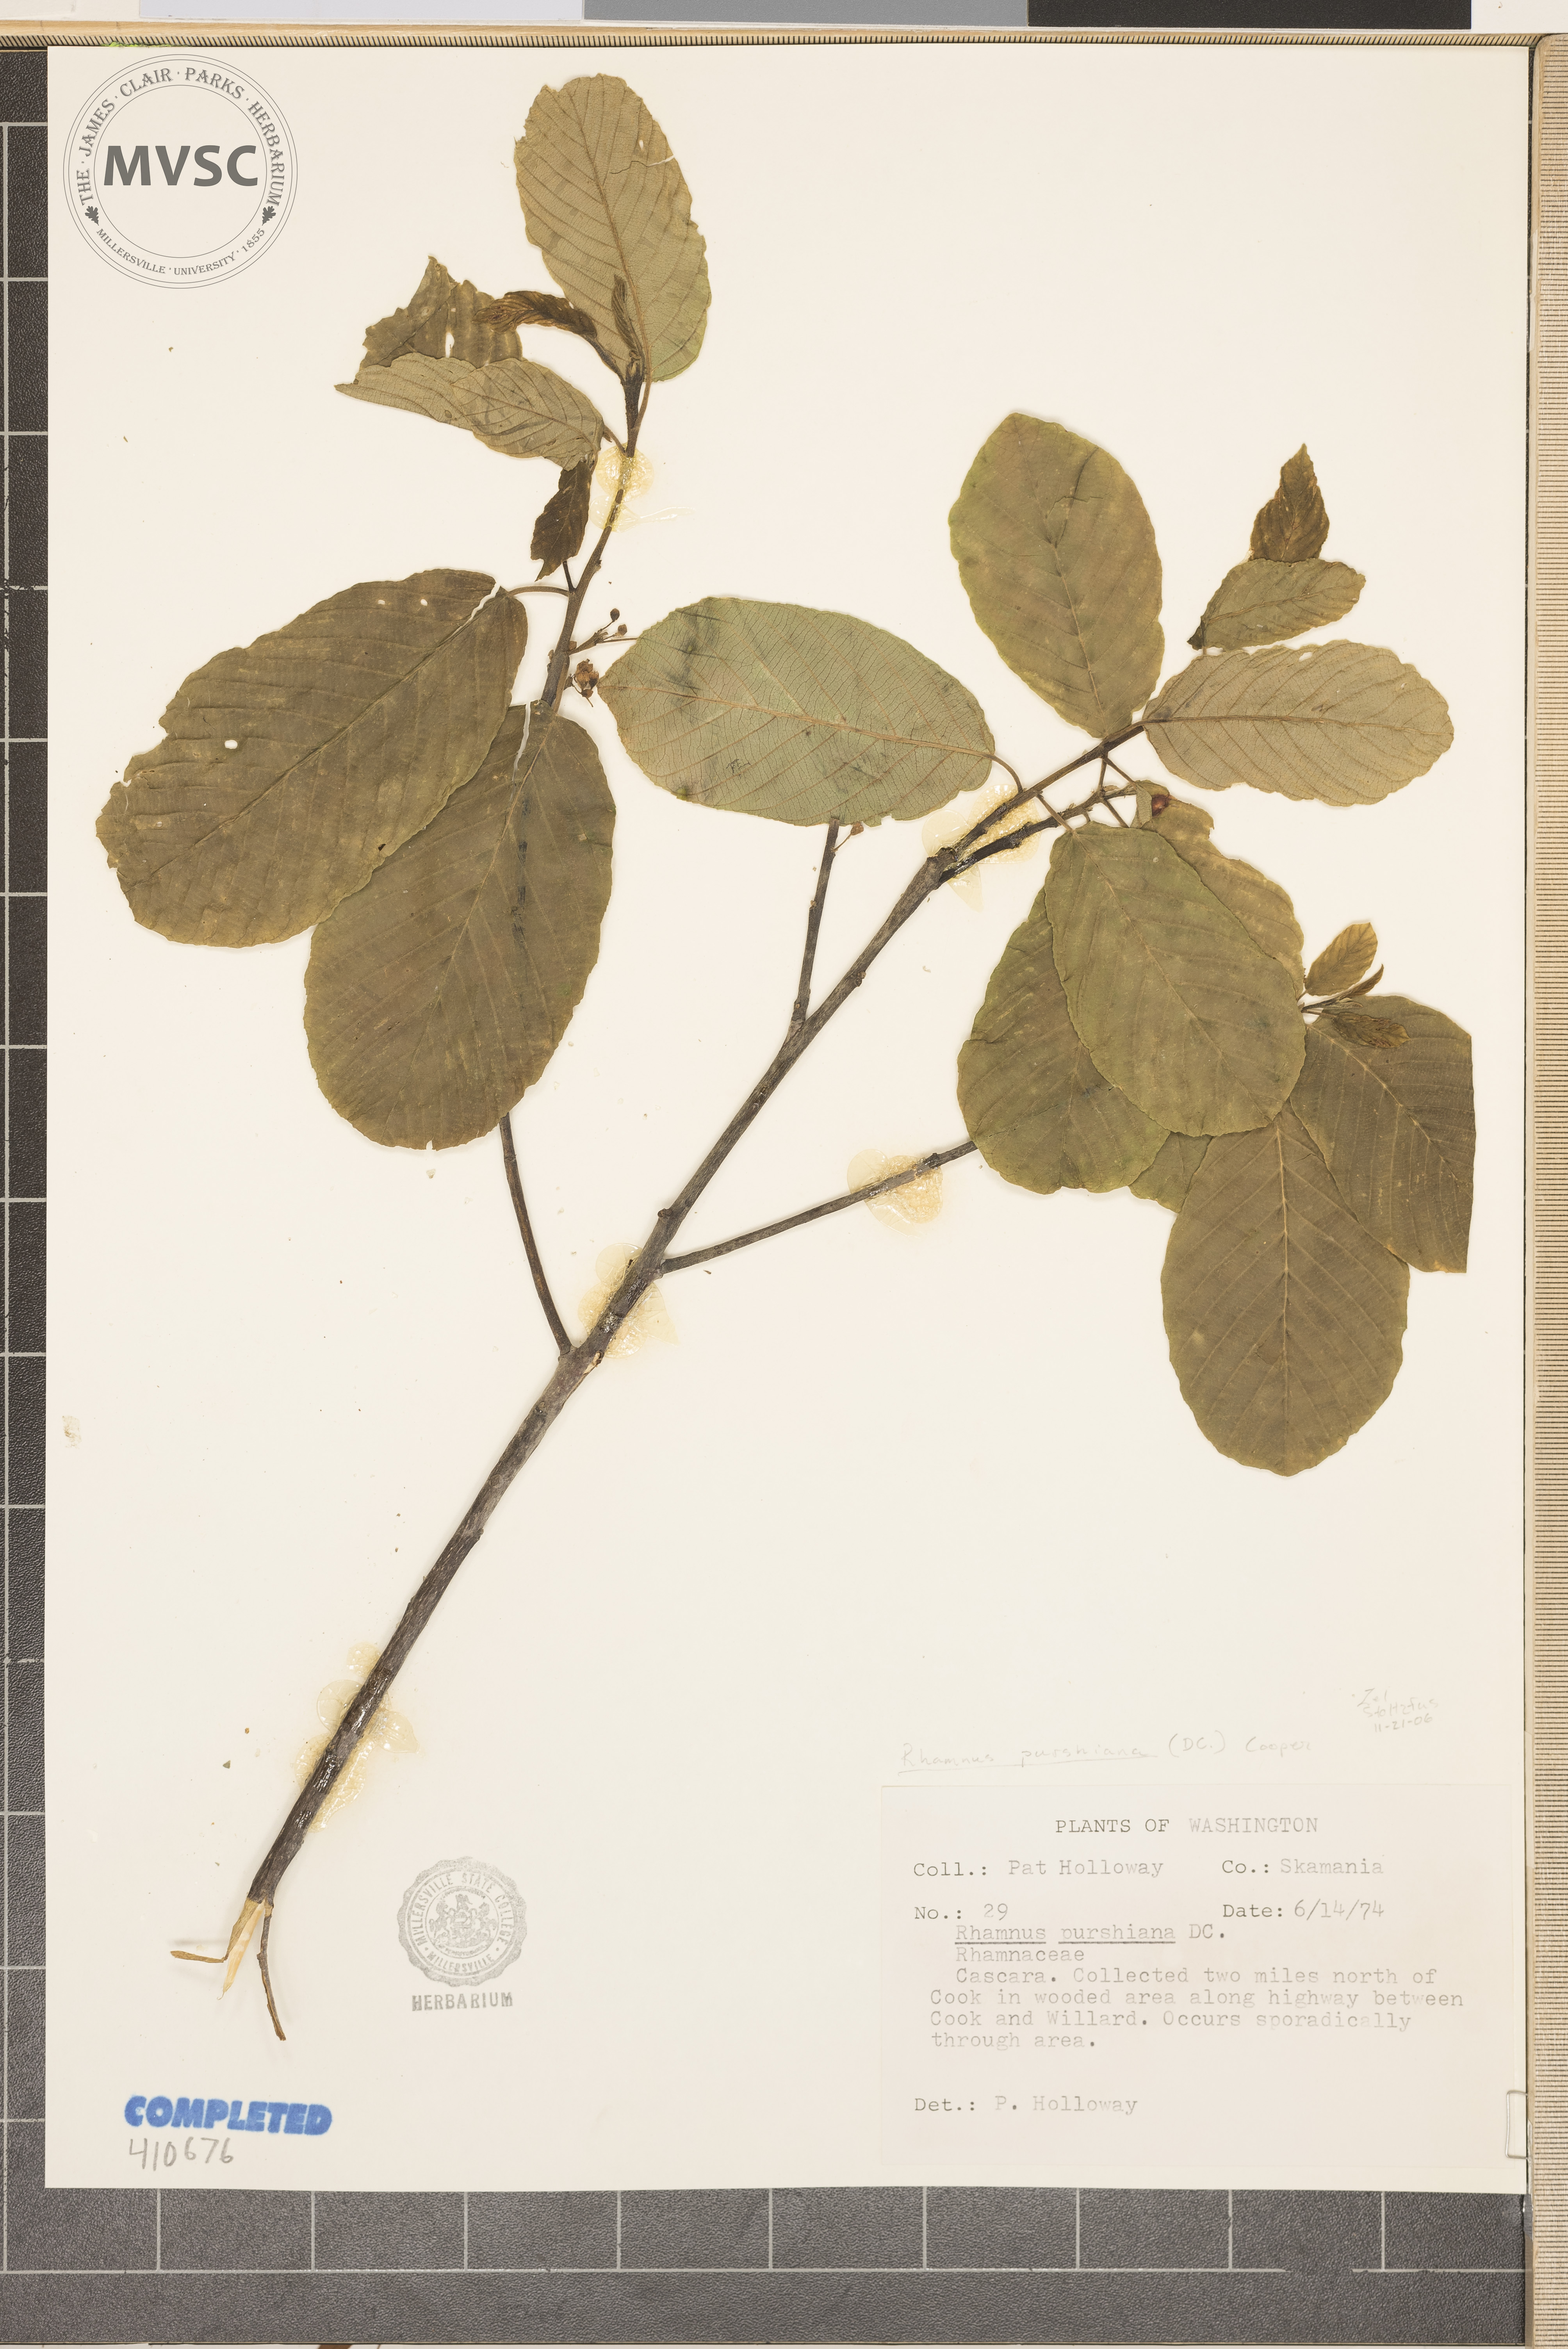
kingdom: Plantae
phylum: Tracheophyta
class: Magnoliopsida
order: Rosales
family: Rhamnaceae
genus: Frangula
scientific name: Frangula purshiana
